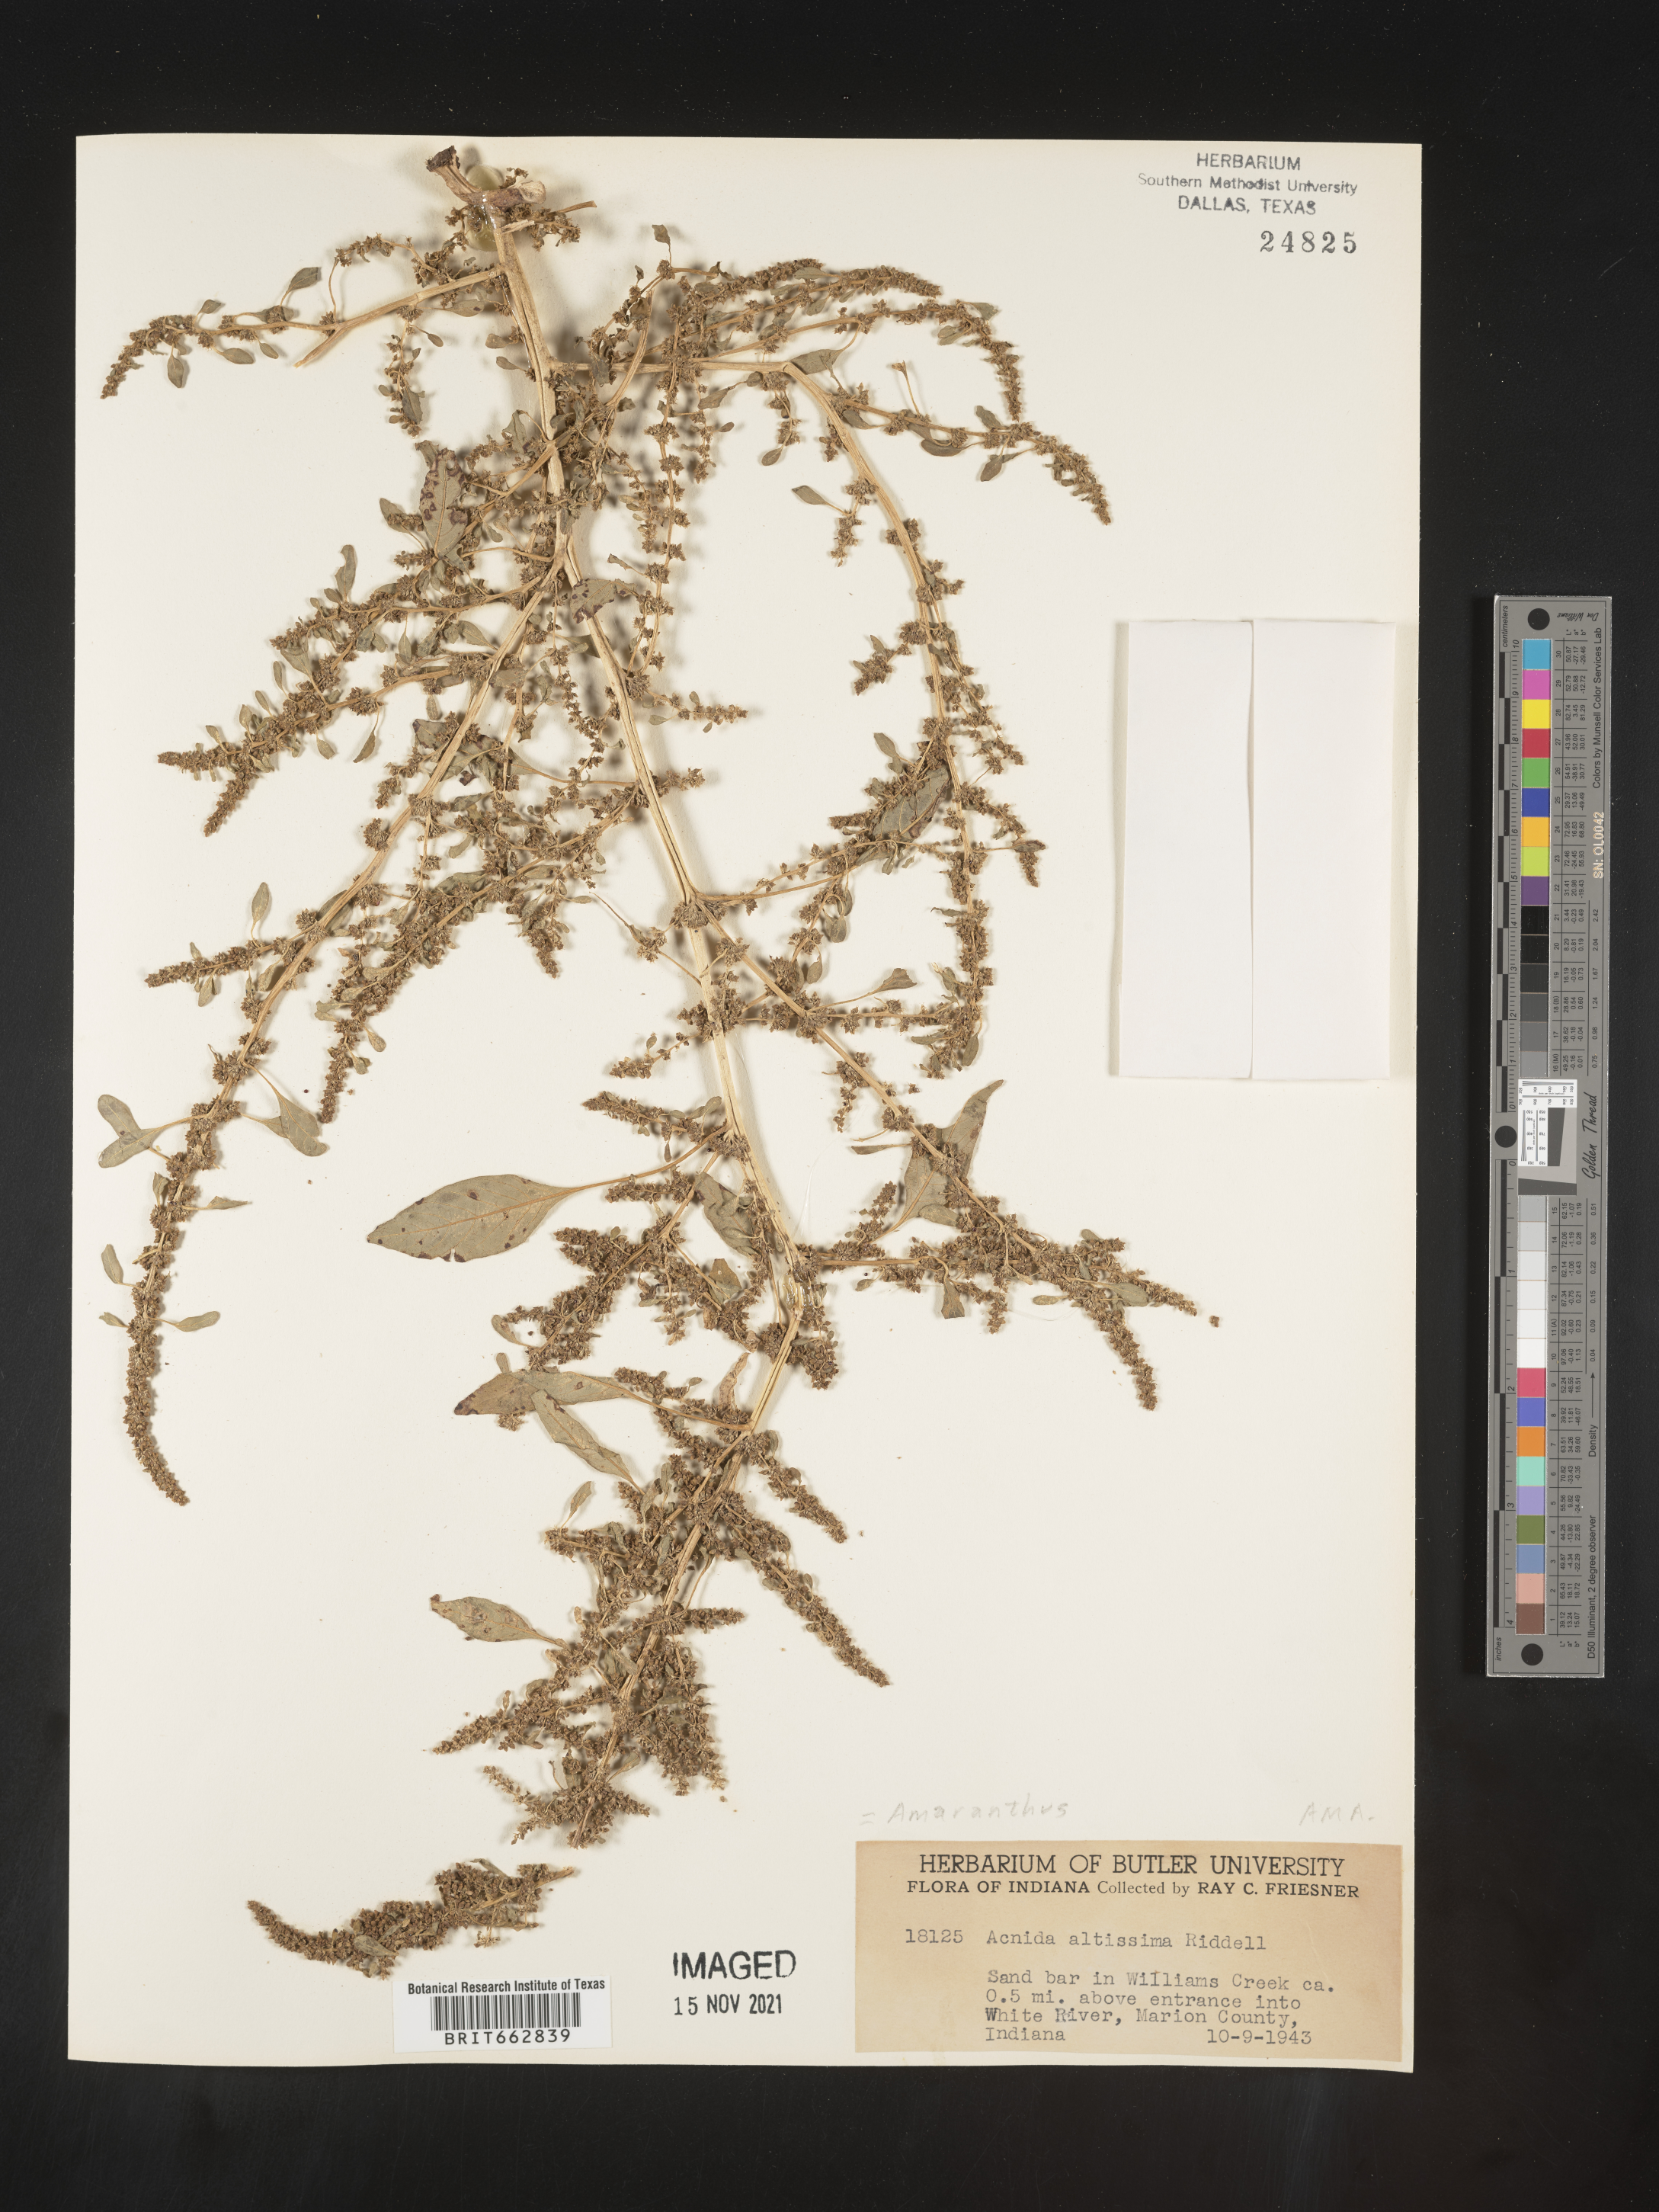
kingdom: Plantae
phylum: Tracheophyta
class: Magnoliopsida
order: Caryophyllales
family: Amaranthaceae
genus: Amaranthus
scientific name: Amaranthus tuberculatus
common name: Rough-fruit amaranth
